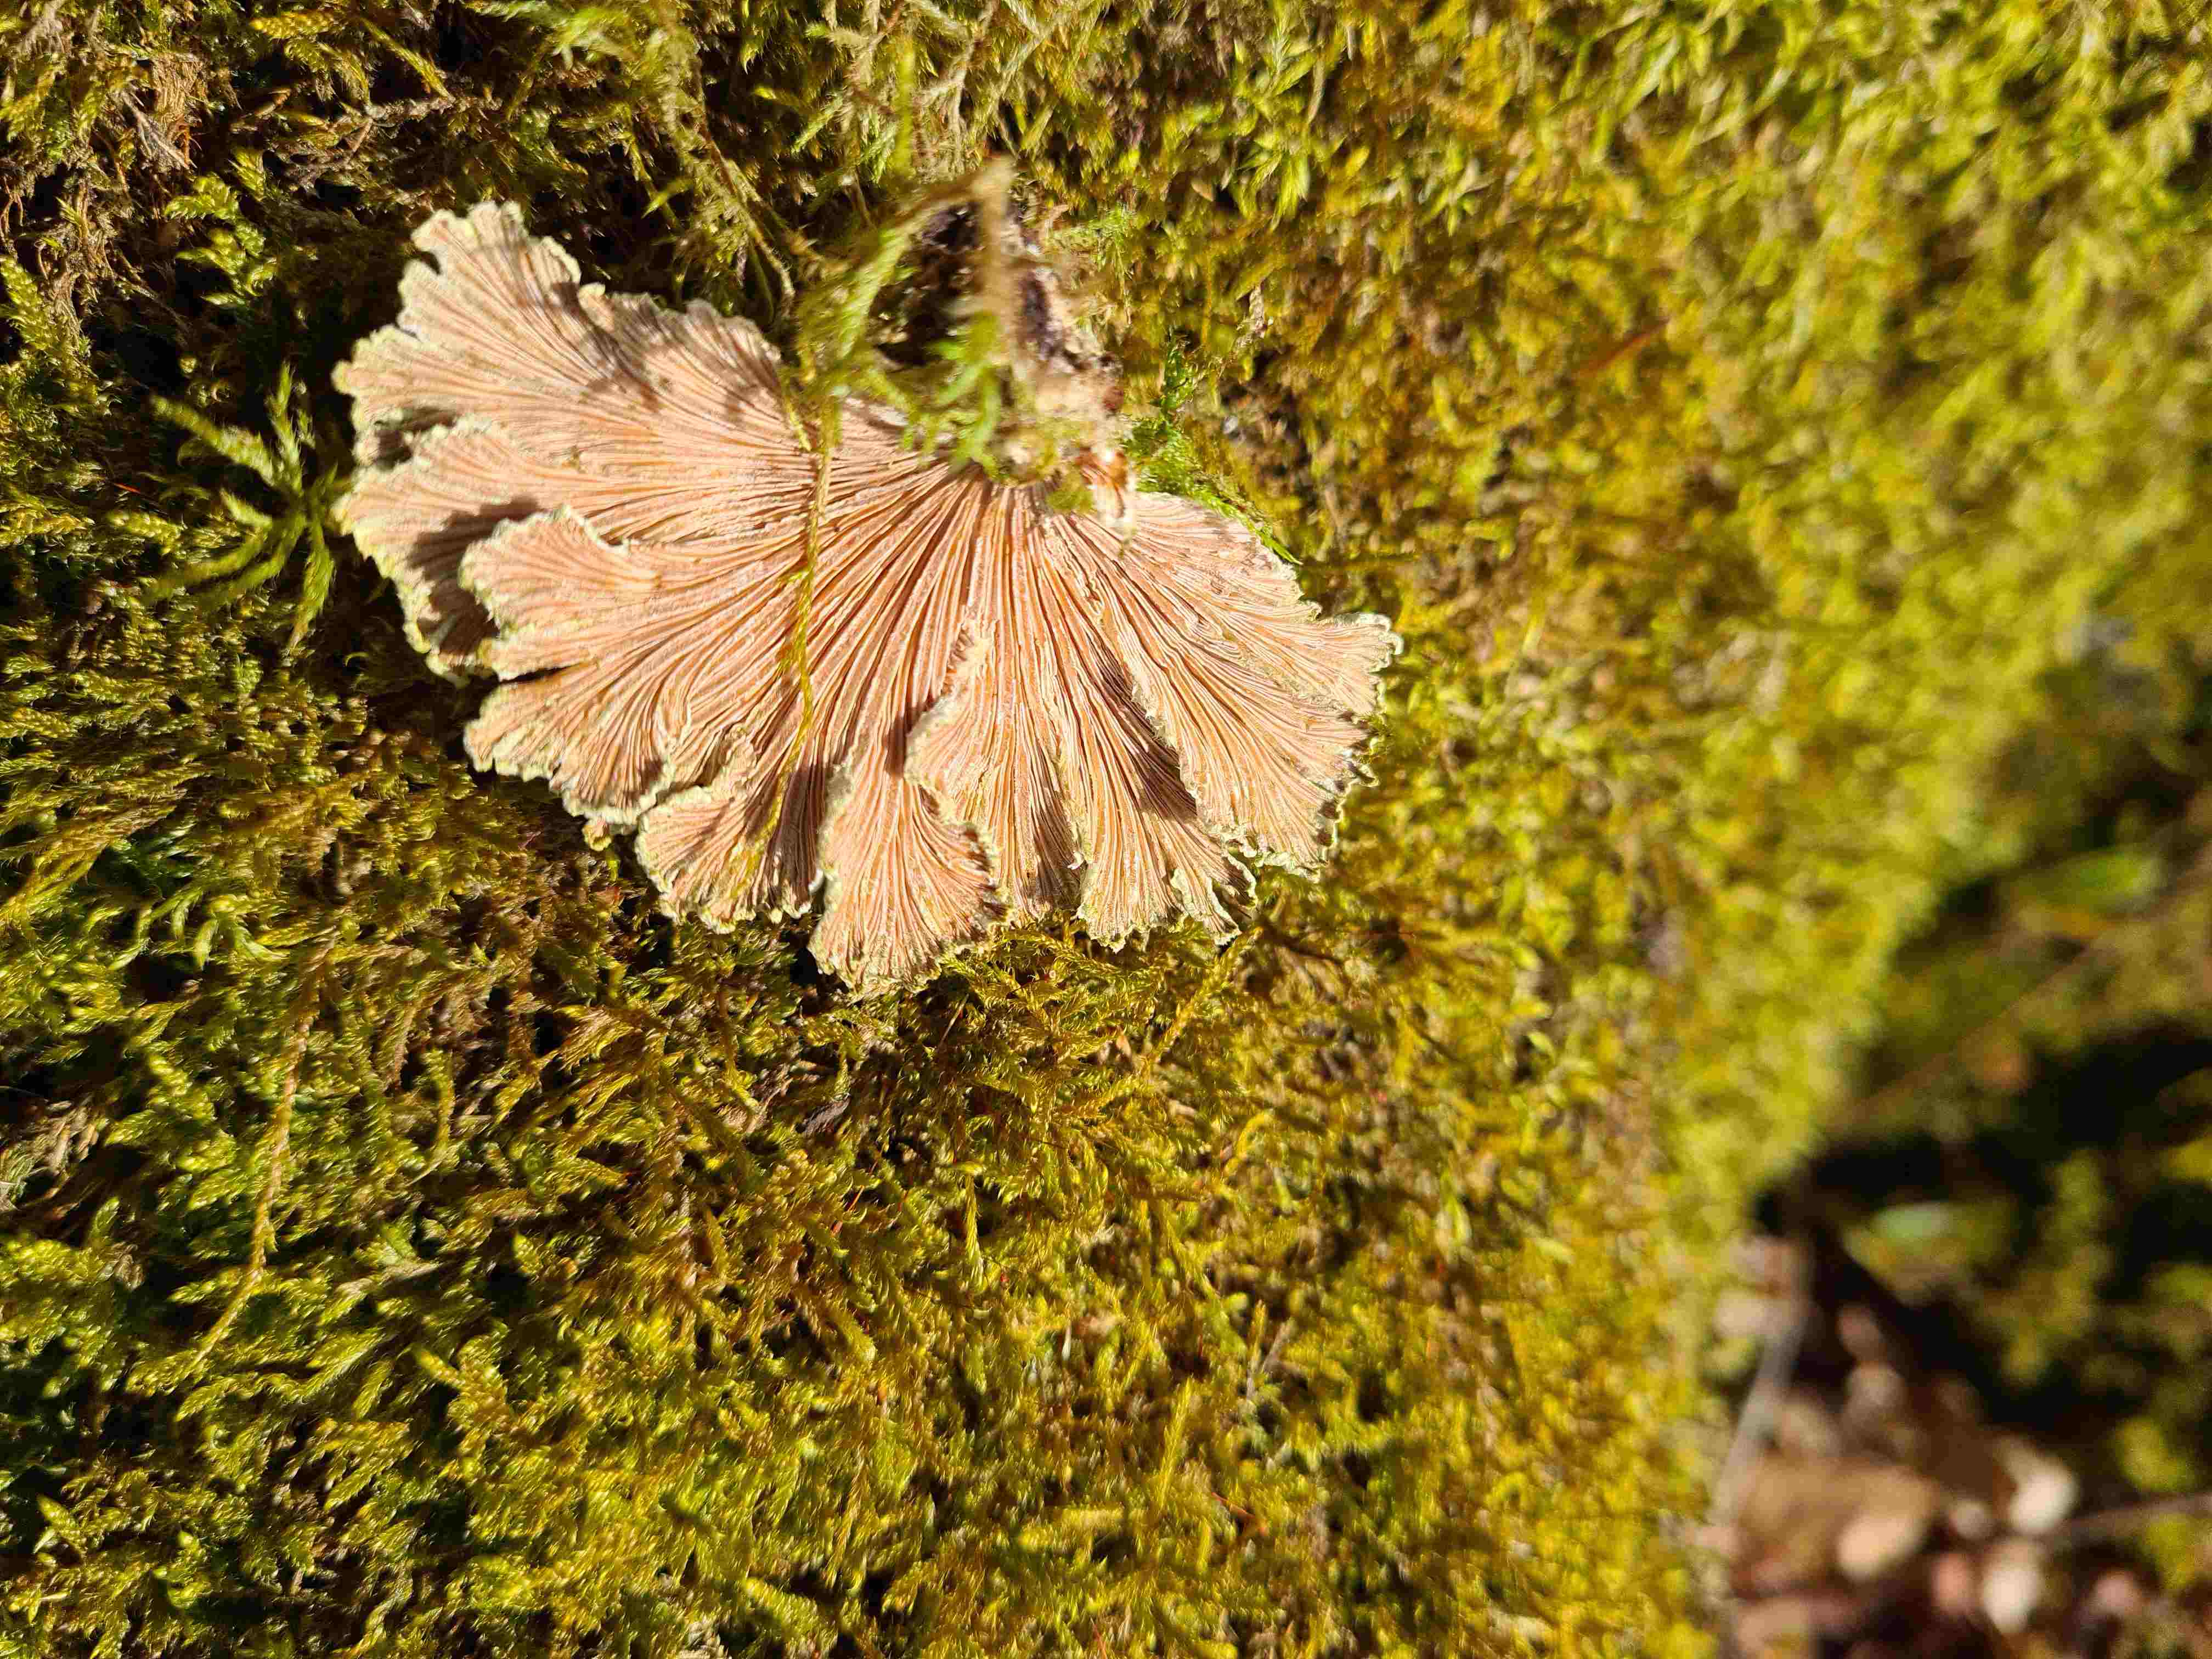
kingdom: Fungi
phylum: Basidiomycota
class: Agaricomycetes
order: Agaricales
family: Schizophyllaceae
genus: Schizophyllum
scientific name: Schizophyllum commune
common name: kløvblad
